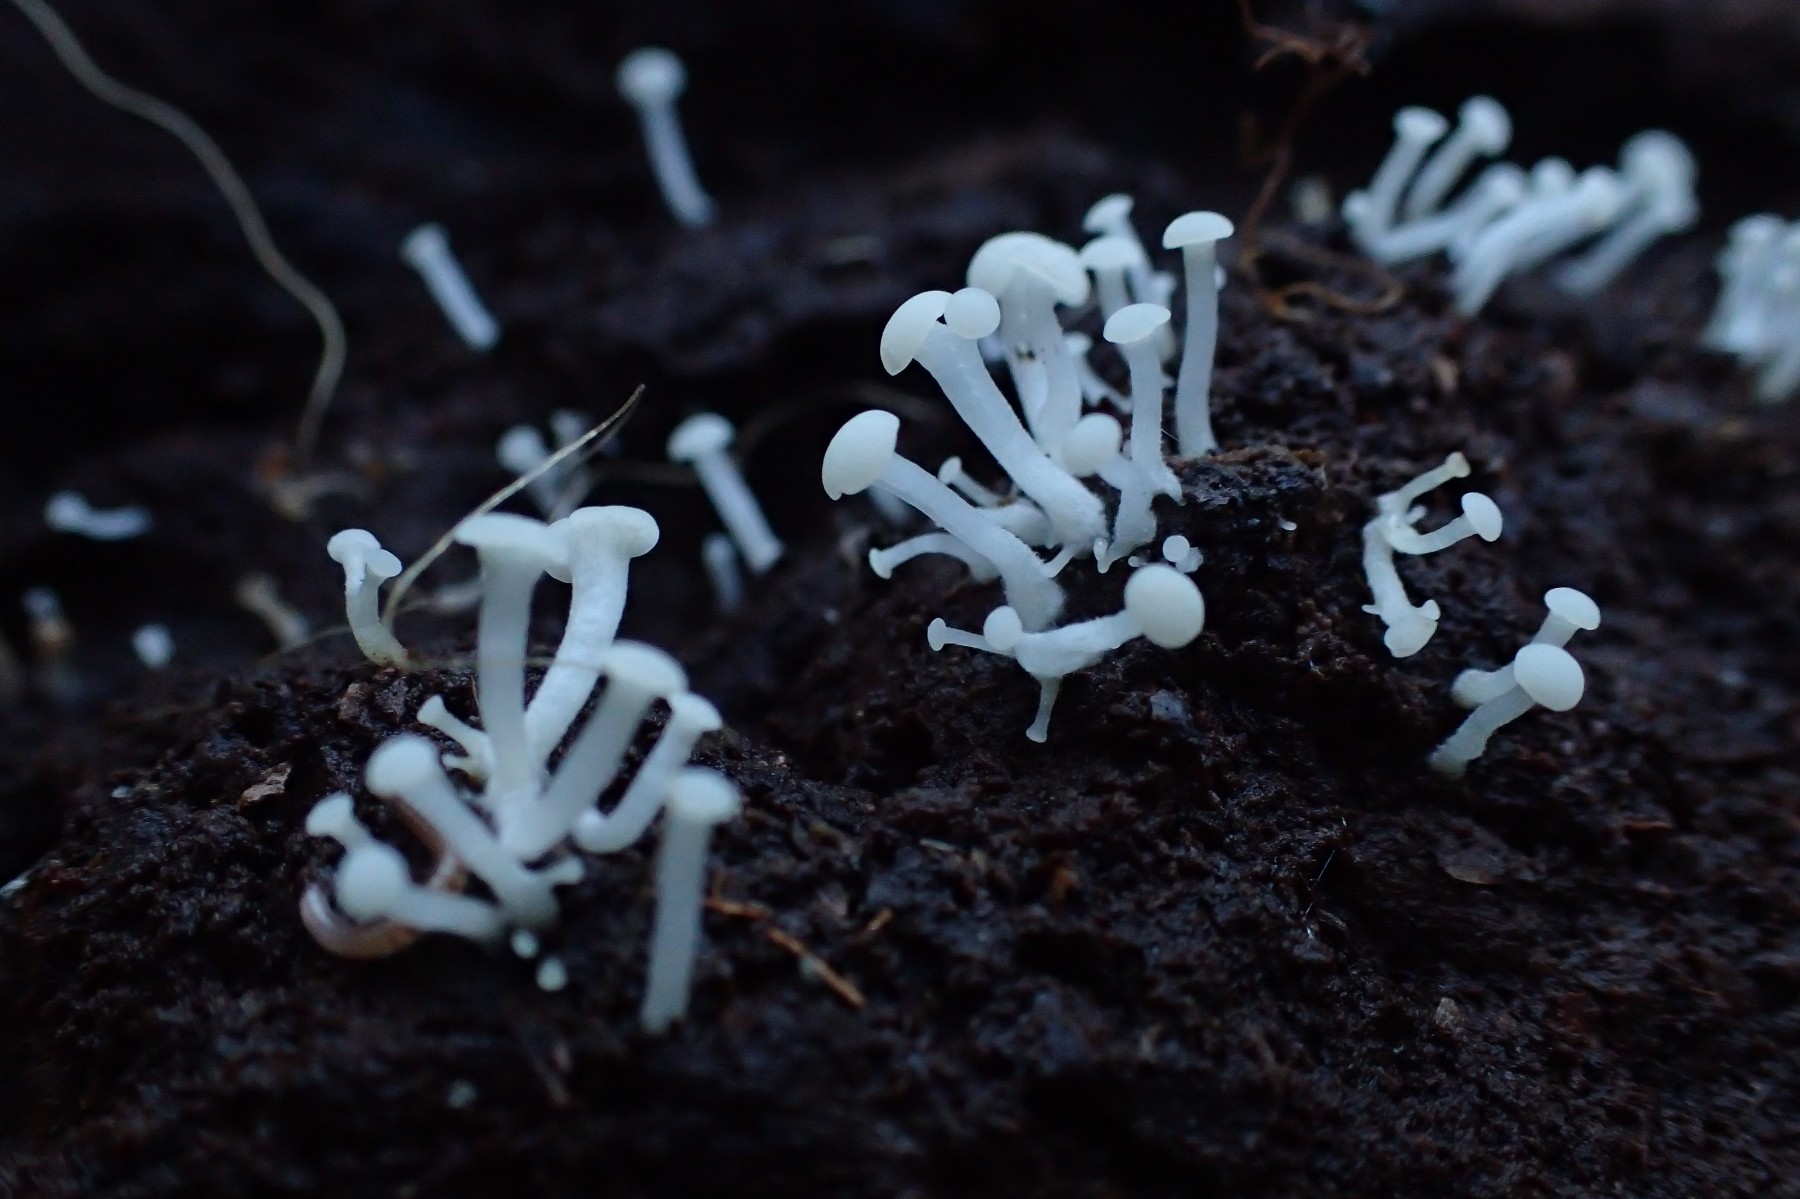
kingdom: Fungi
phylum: Ascomycota
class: Leotiomycetes
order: Helotiales
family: Tricladiaceae
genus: Cudoniella
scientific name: Cudoniella acicularis
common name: ege-dyndskive
